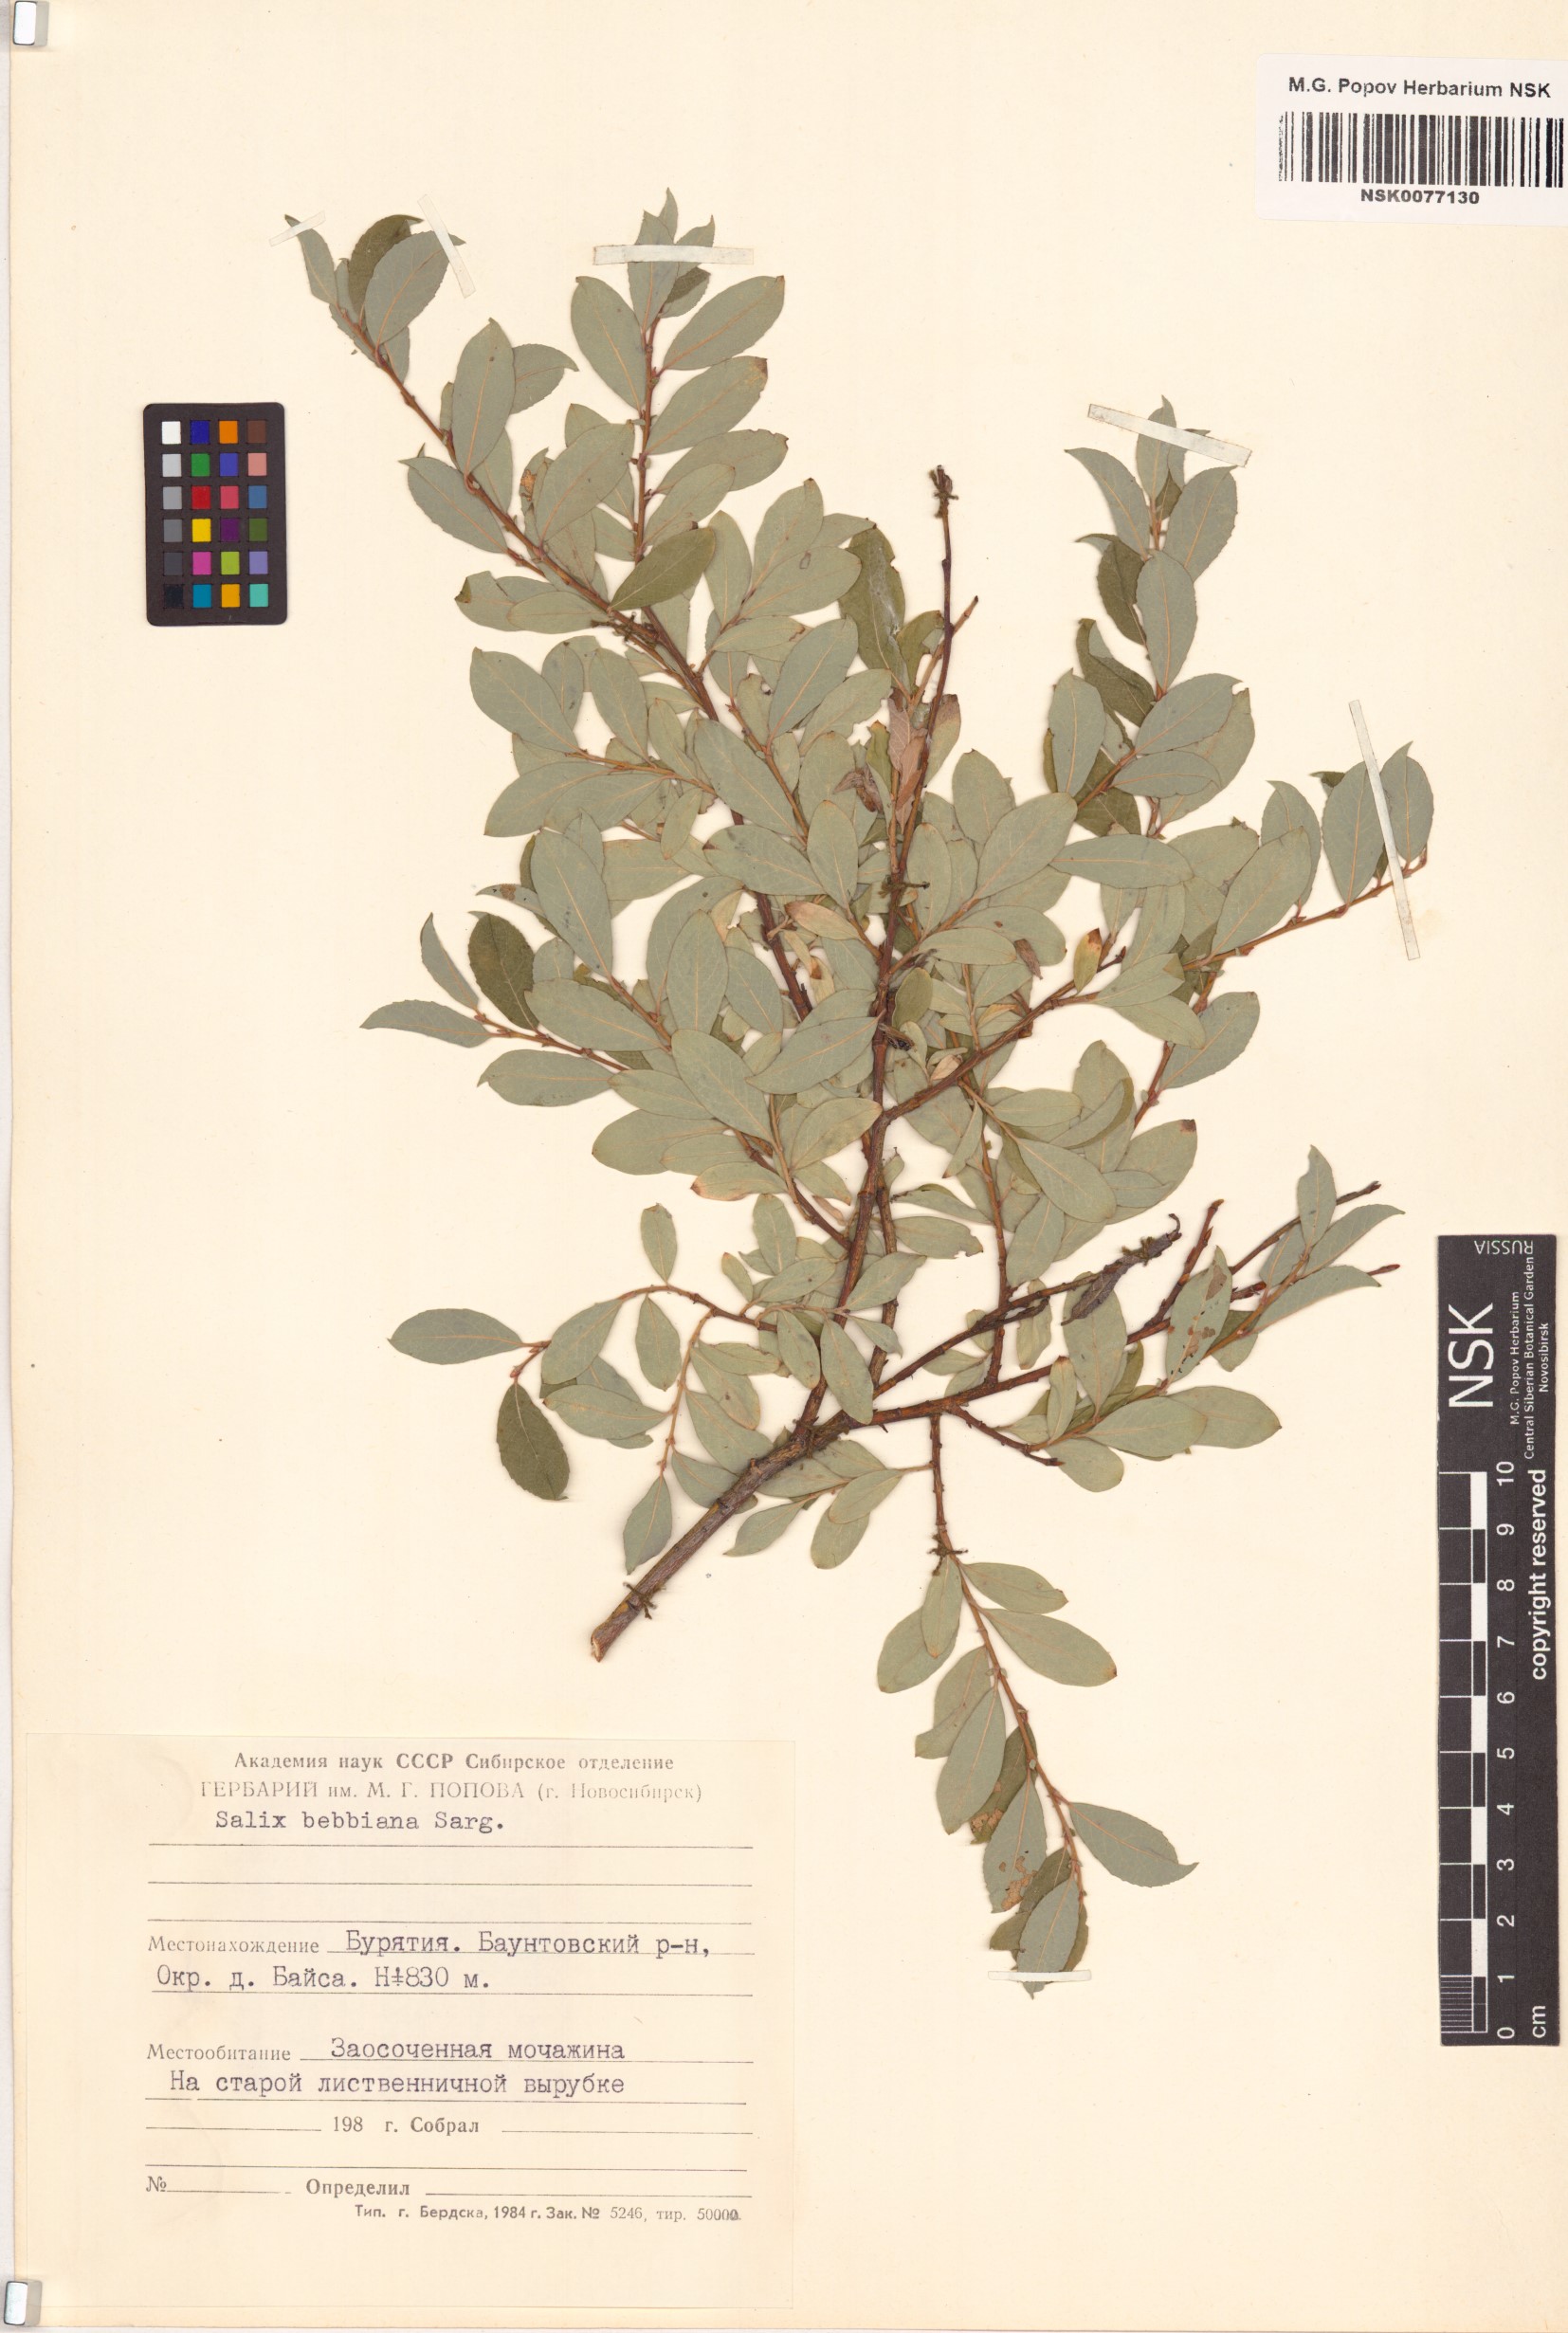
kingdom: Plantae
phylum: Tracheophyta
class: Magnoliopsida
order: Malpighiales
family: Salicaceae
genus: Salix
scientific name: Salix bebbiana
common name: Bebb's willow
